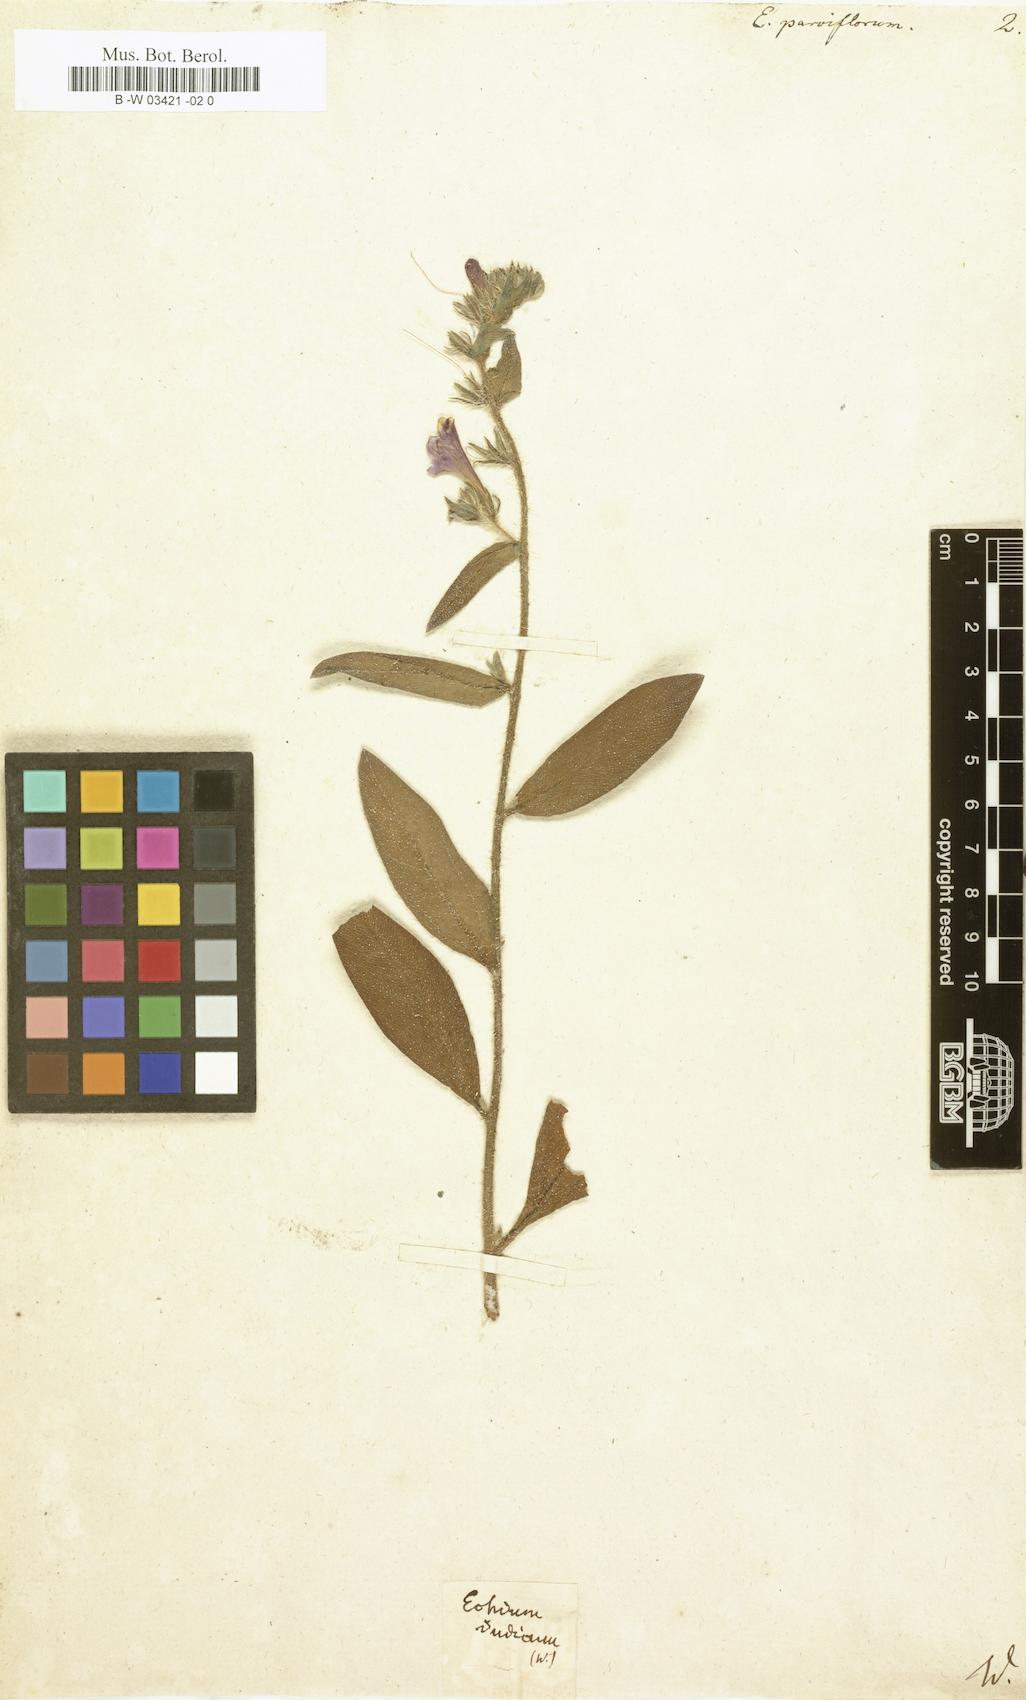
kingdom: Plantae
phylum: Tracheophyta
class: Magnoliopsida
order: Boraginales
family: Boraginaceae
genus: Echium
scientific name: Echium vulgare
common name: Common viper's bugloss
